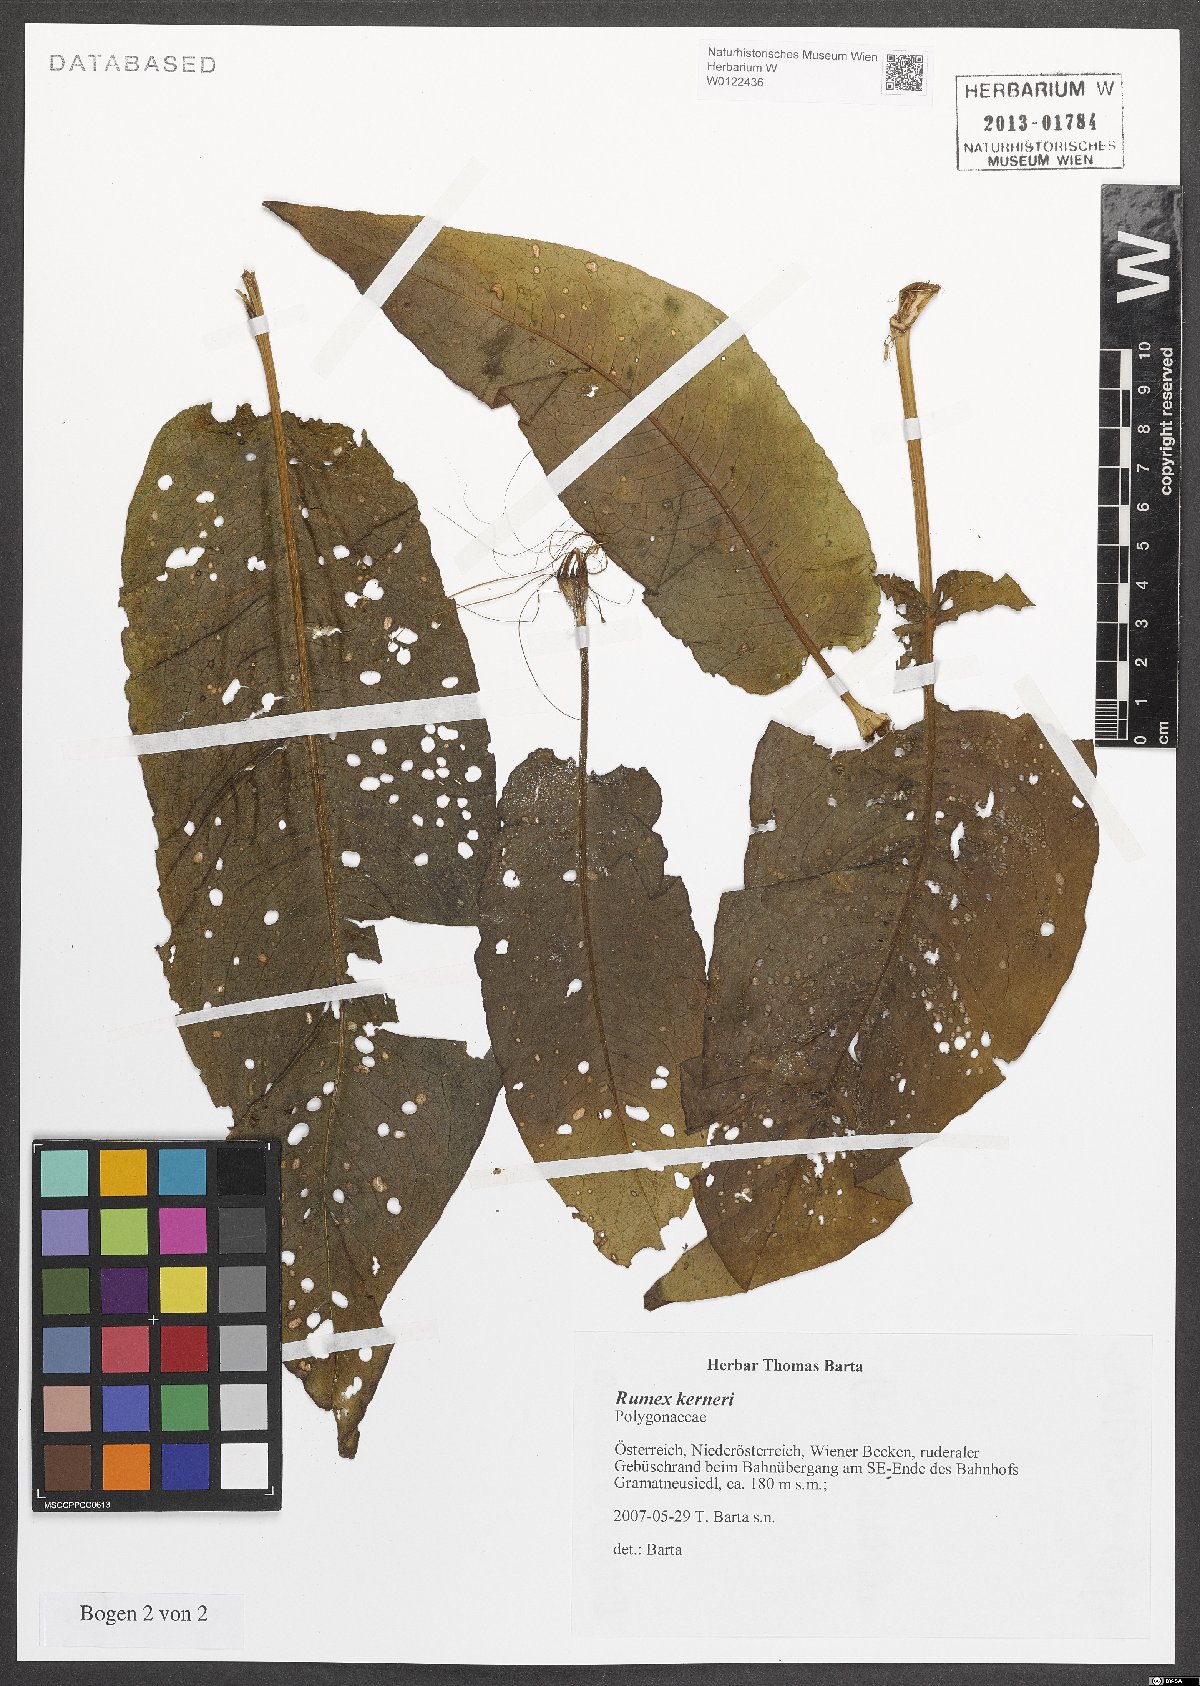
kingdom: Plantae
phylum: Tracheophyta
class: Magnoliopsida
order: Caryophyllales
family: Polygonaceae
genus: Rumex
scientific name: Rumex kerneri
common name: Kerner's dock
